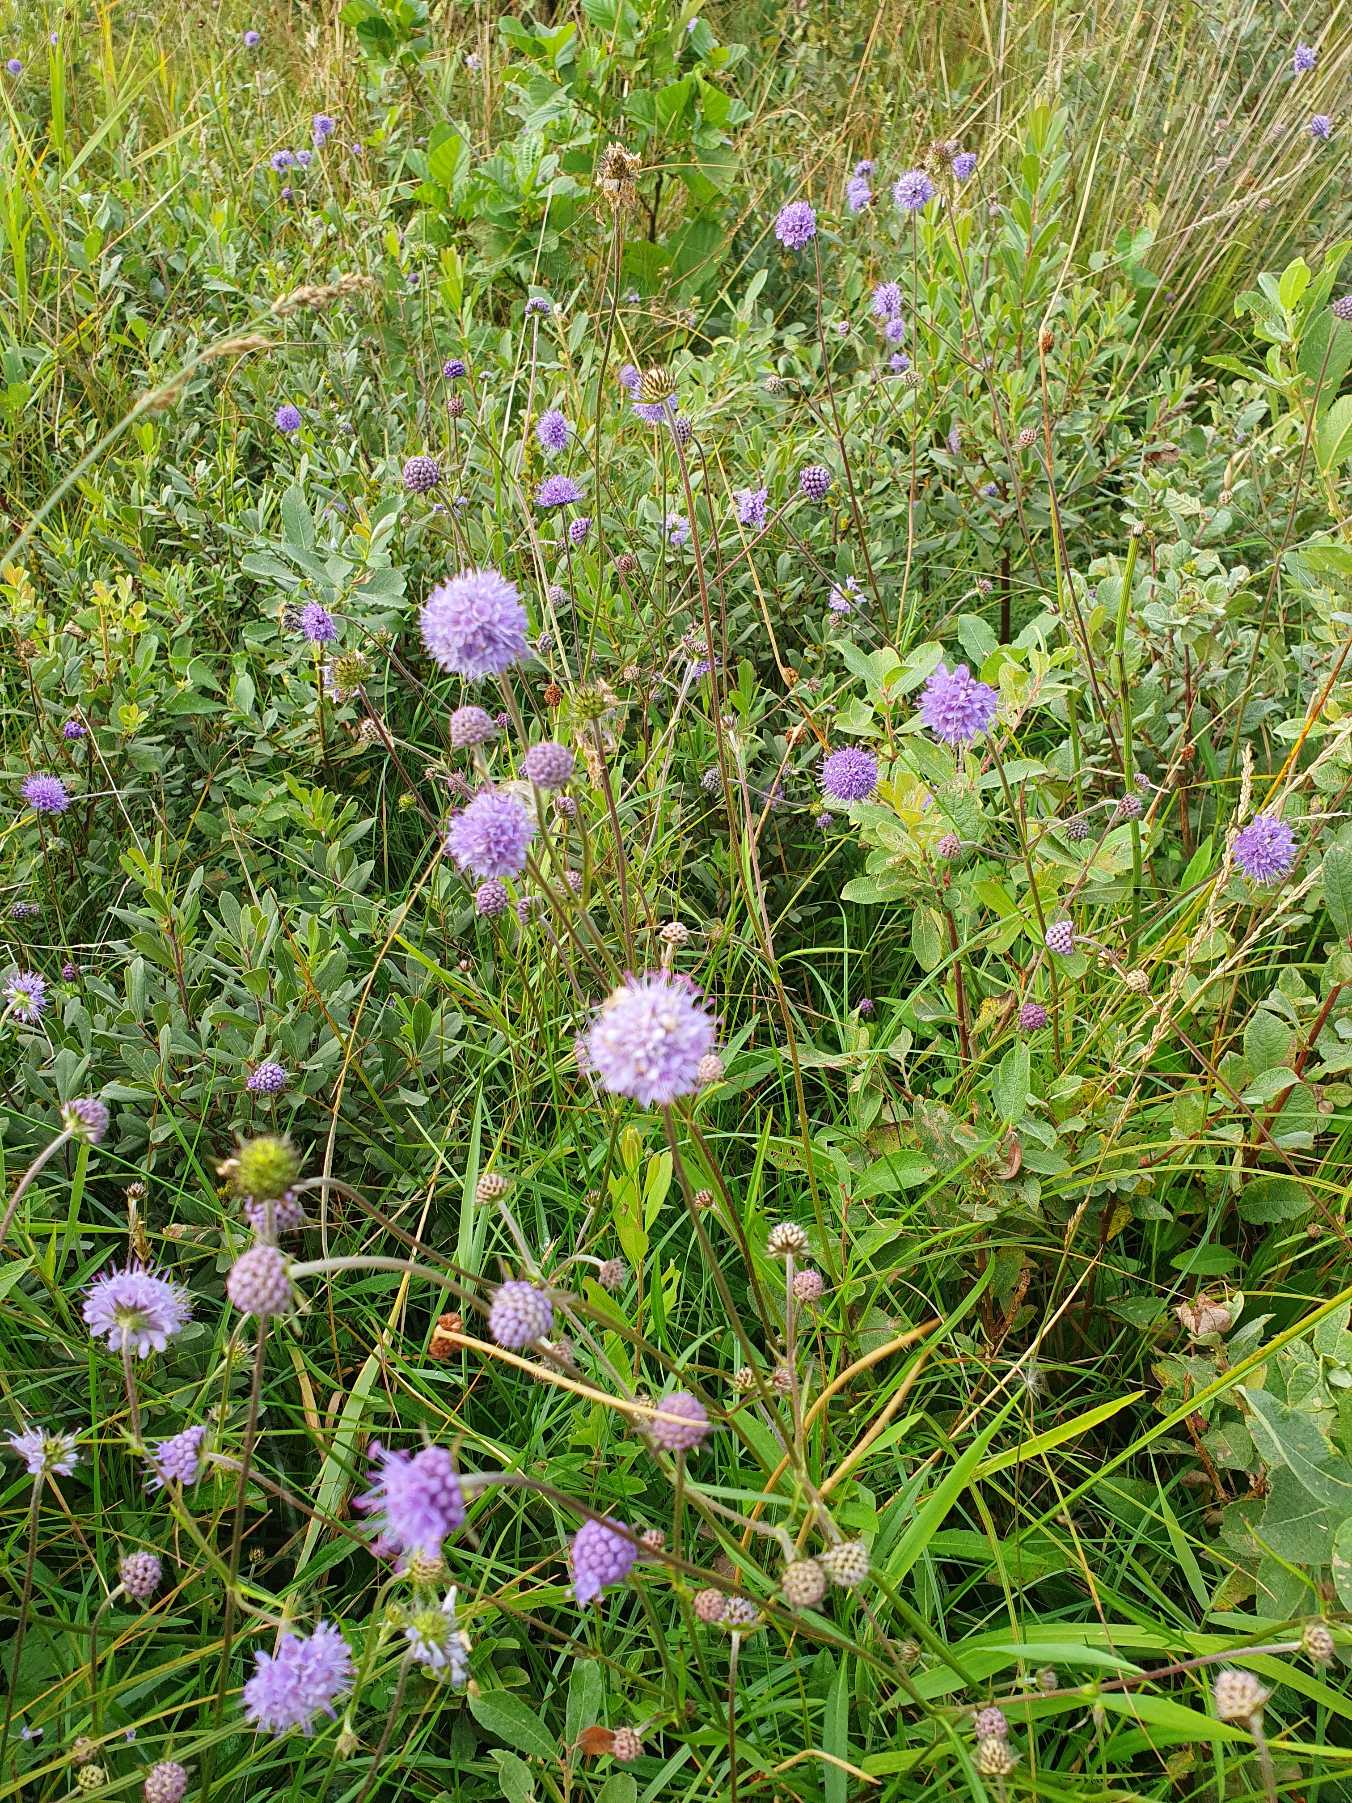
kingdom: Plantae
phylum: Tracheophyta
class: Magnoliopsida
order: Dipsacales
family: Caprifoliaceae
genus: Succisa
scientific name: Succisa pratensis
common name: Djævelsbid
